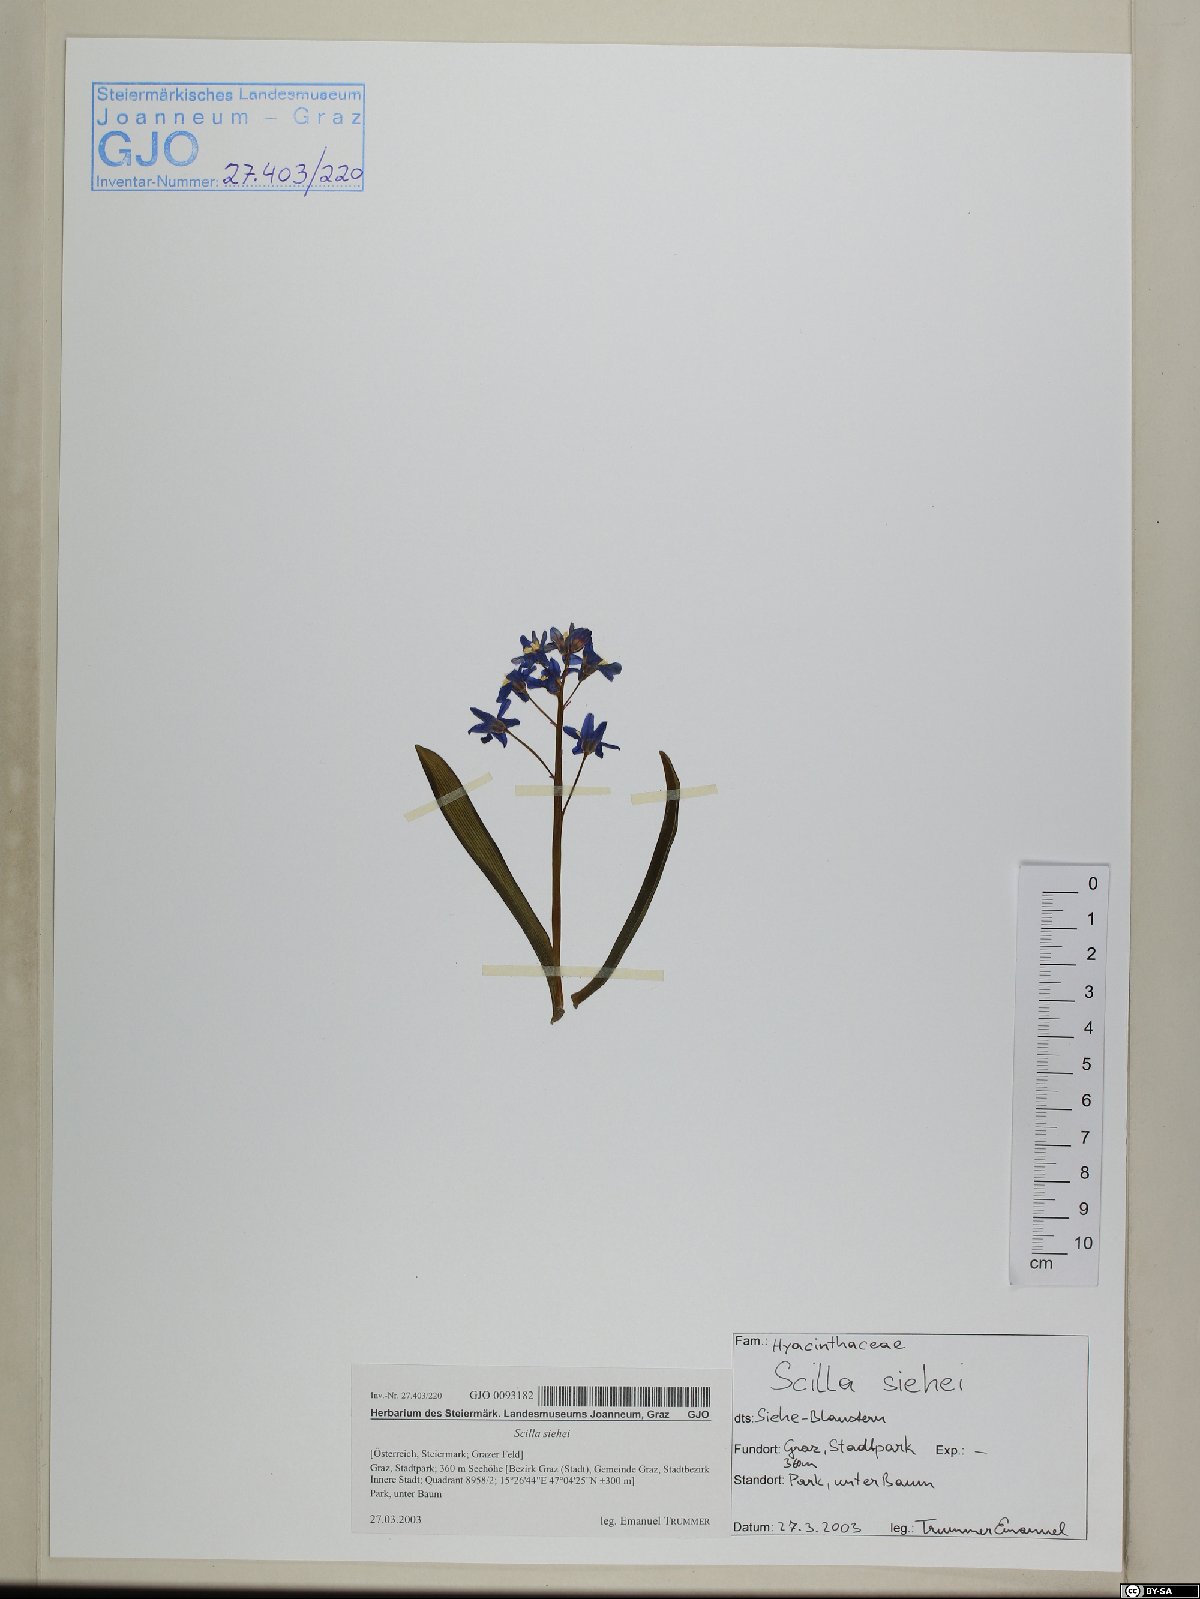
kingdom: Plantae
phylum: Tracheophyta
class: Liliopsida
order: Asparagales
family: Asparagaceae
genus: Scilla
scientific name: Scilla forbesii
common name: Glory-of-the-snow
